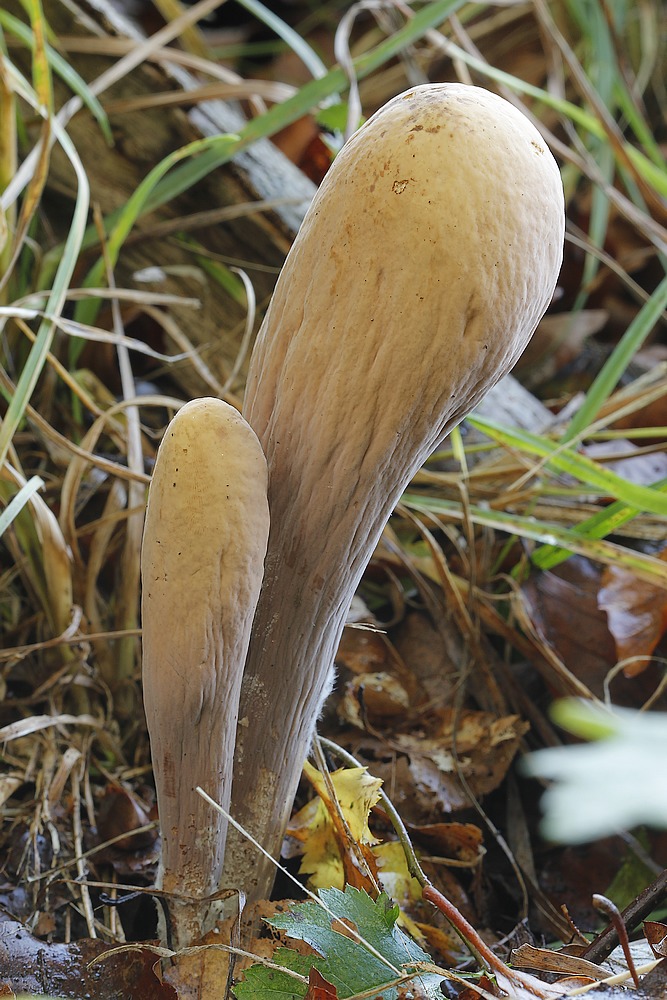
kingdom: Fungi
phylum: Basidiomycota
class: Agaricomycetes
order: Gomphales
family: Clavariadelphaceae
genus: Clavariadelphus
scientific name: Clavariadelphus pistillaris
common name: herkules-kæmpekølle
